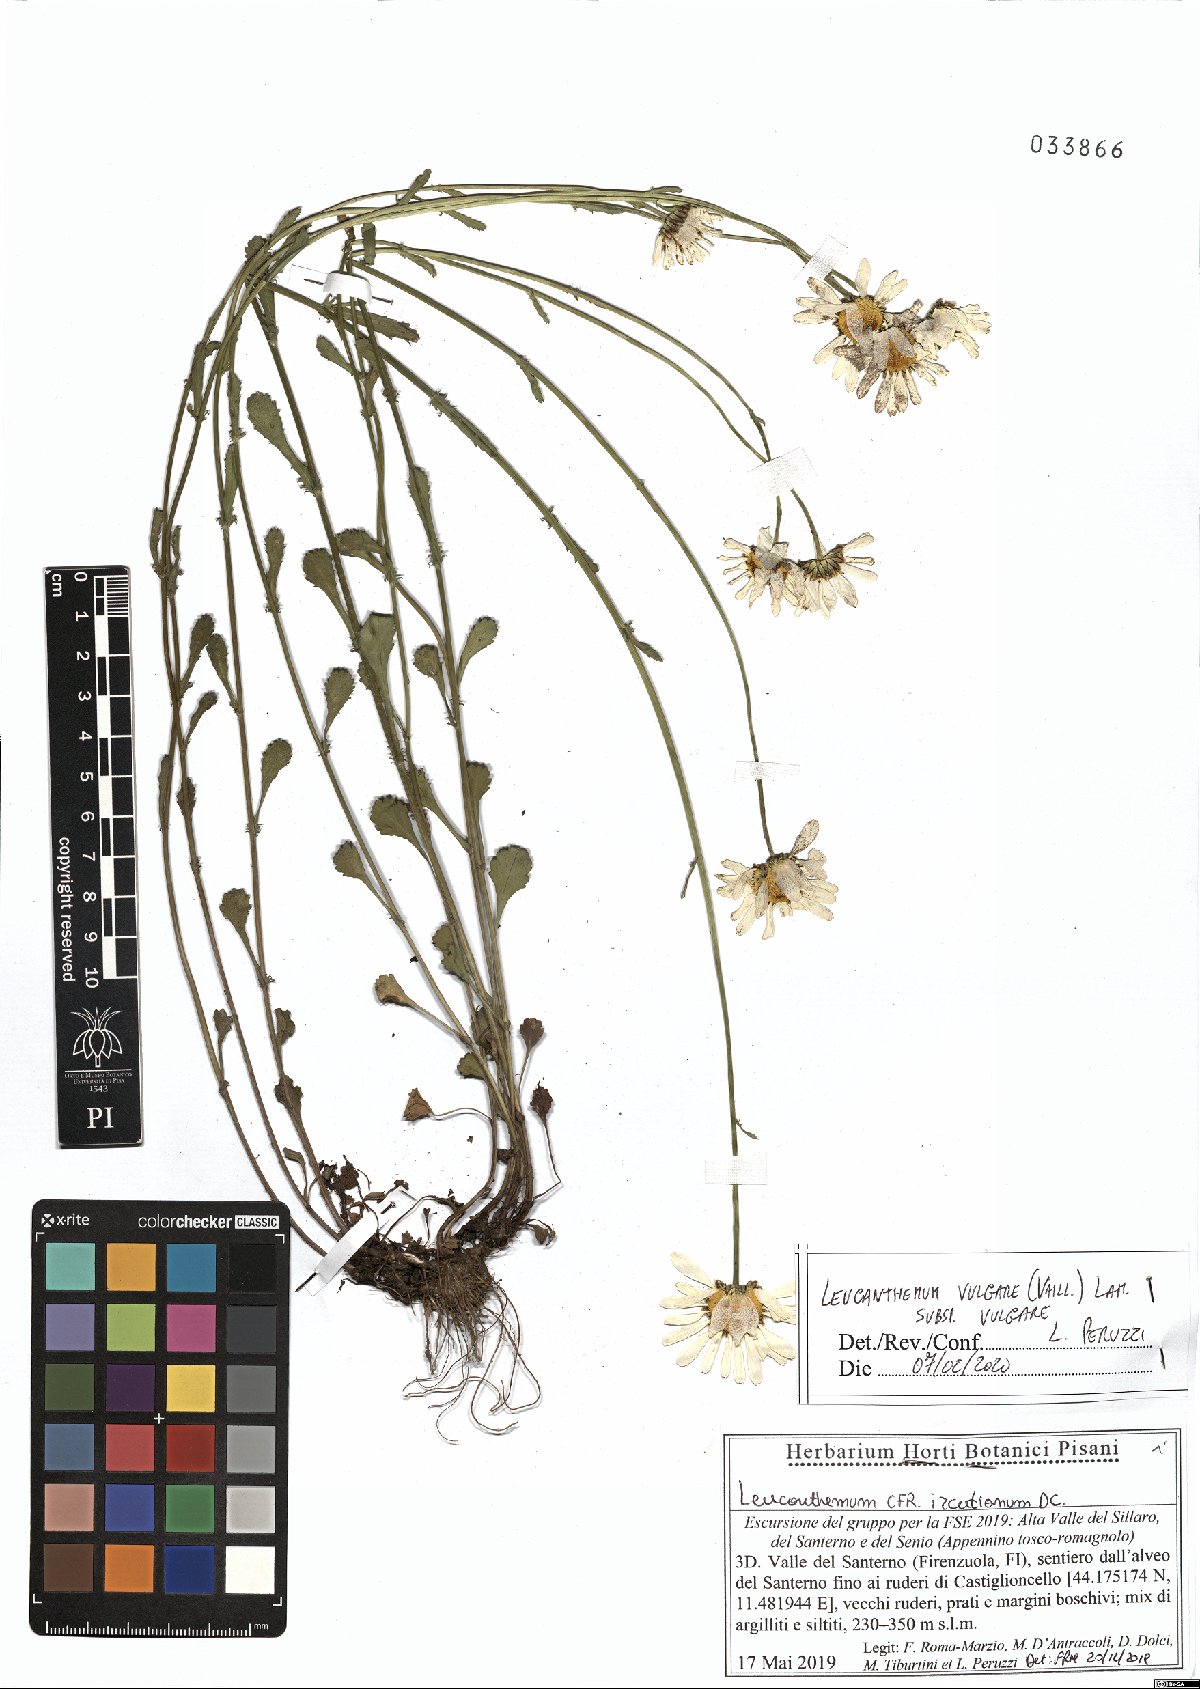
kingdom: Plantae
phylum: Tracheophyta
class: Magnoliopsida
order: Asterales
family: Asteraceae
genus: Leucanthemum
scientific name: Leucanthemum vulgare
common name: Oxeye daisy
